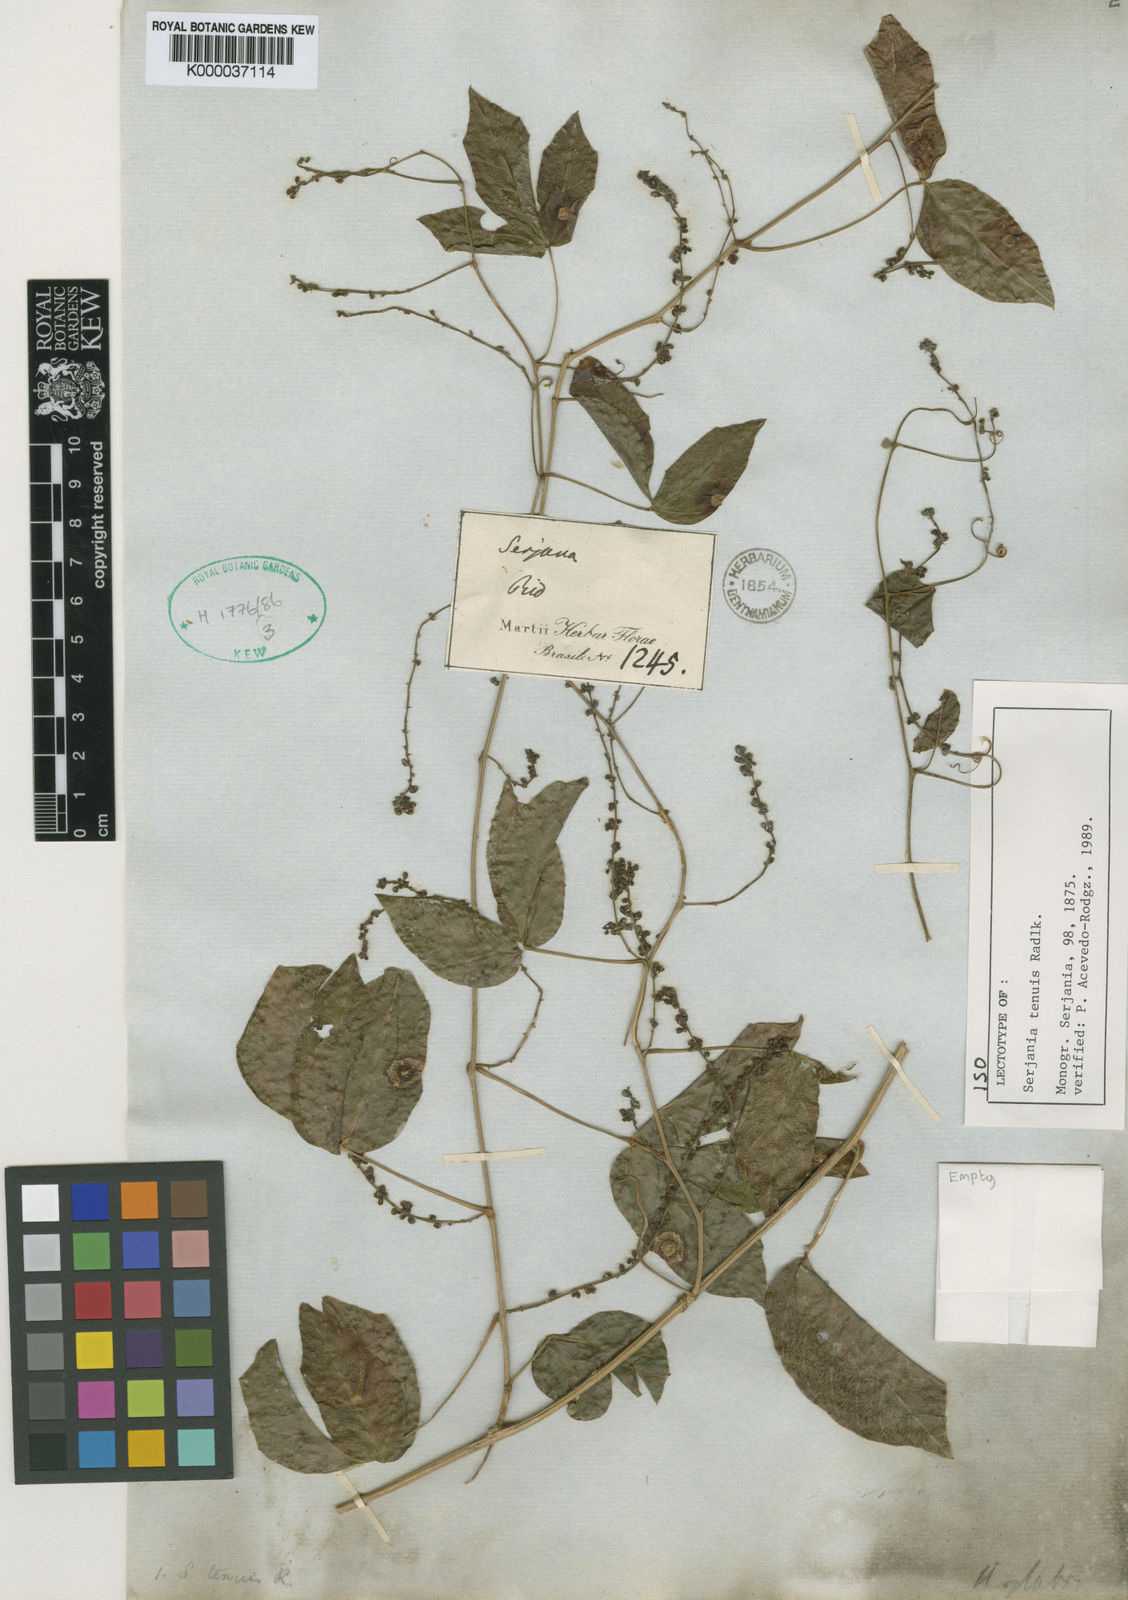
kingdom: Plantae
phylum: Tracheophyta
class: Magnoliopsida
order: Sapindales
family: Sapindaceae
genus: Serjania
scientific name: Serjania tenuis
